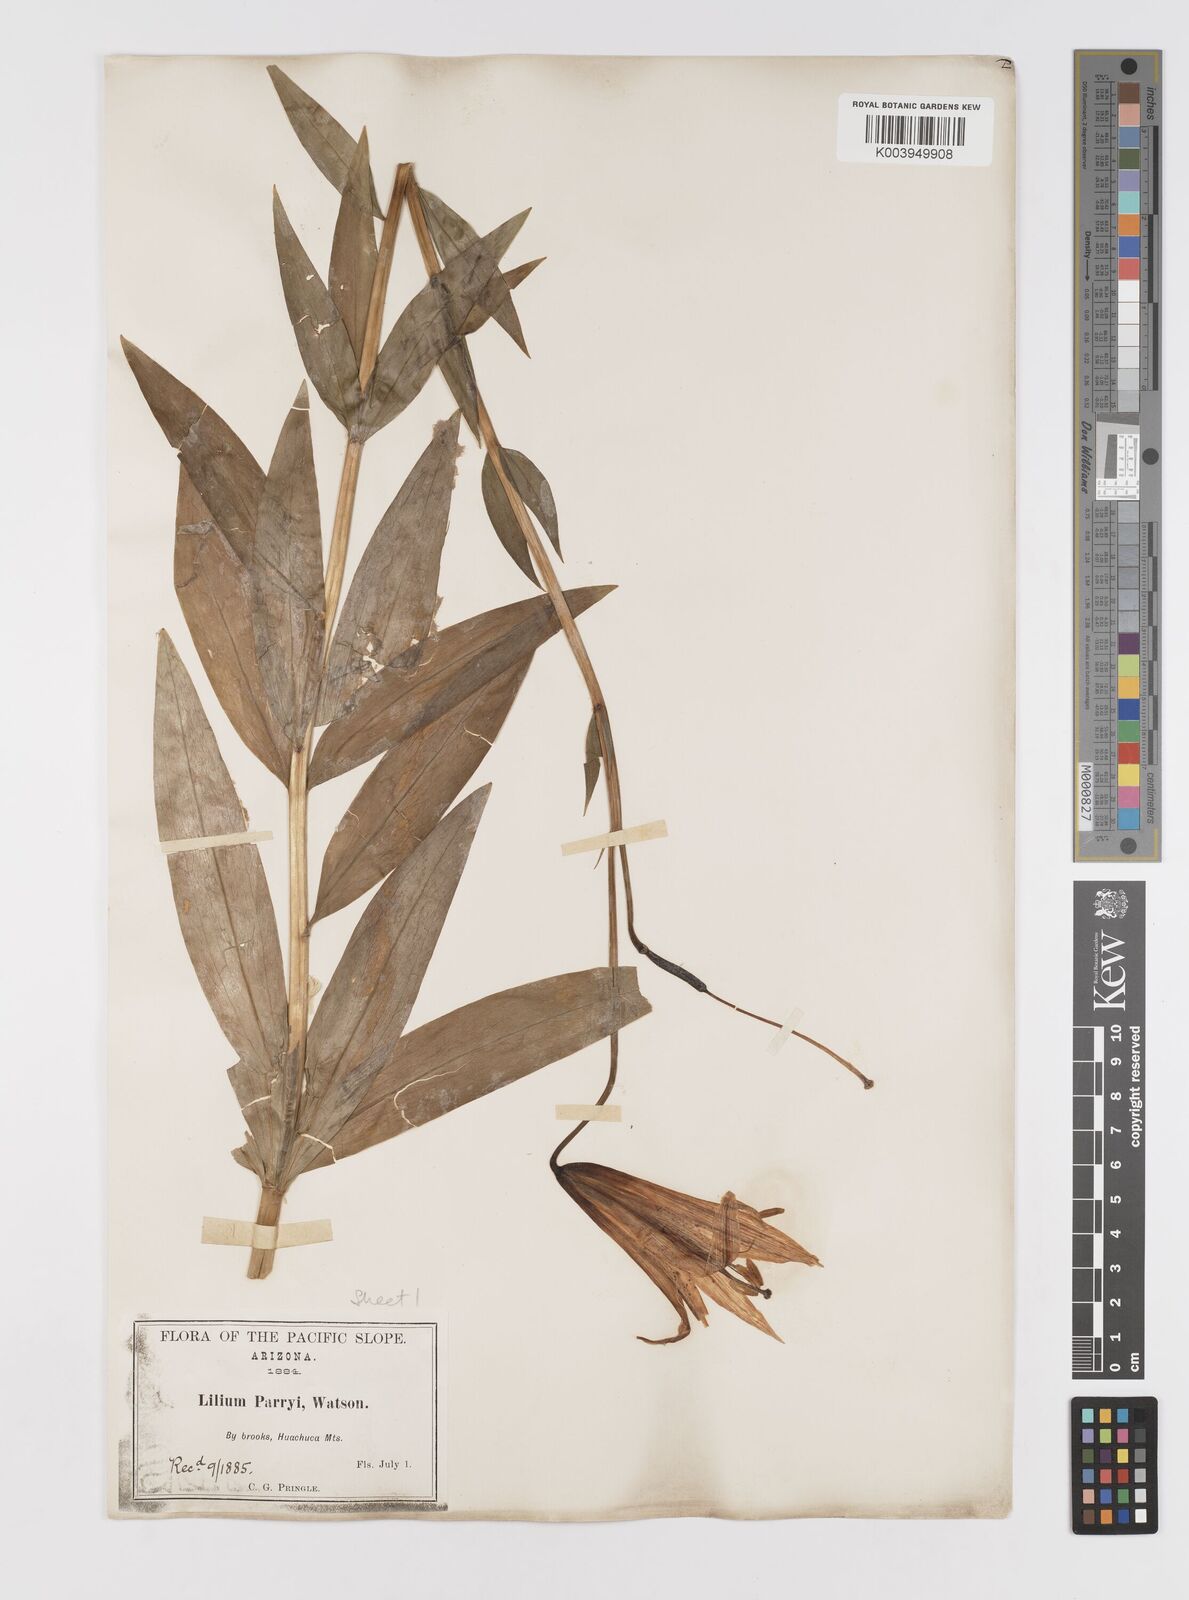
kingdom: Plantae
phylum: Tracheophyta
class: Liliopsida
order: Liliales
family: Liliaceae
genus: Lilium
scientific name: Lilium parryi
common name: Lemon lily
